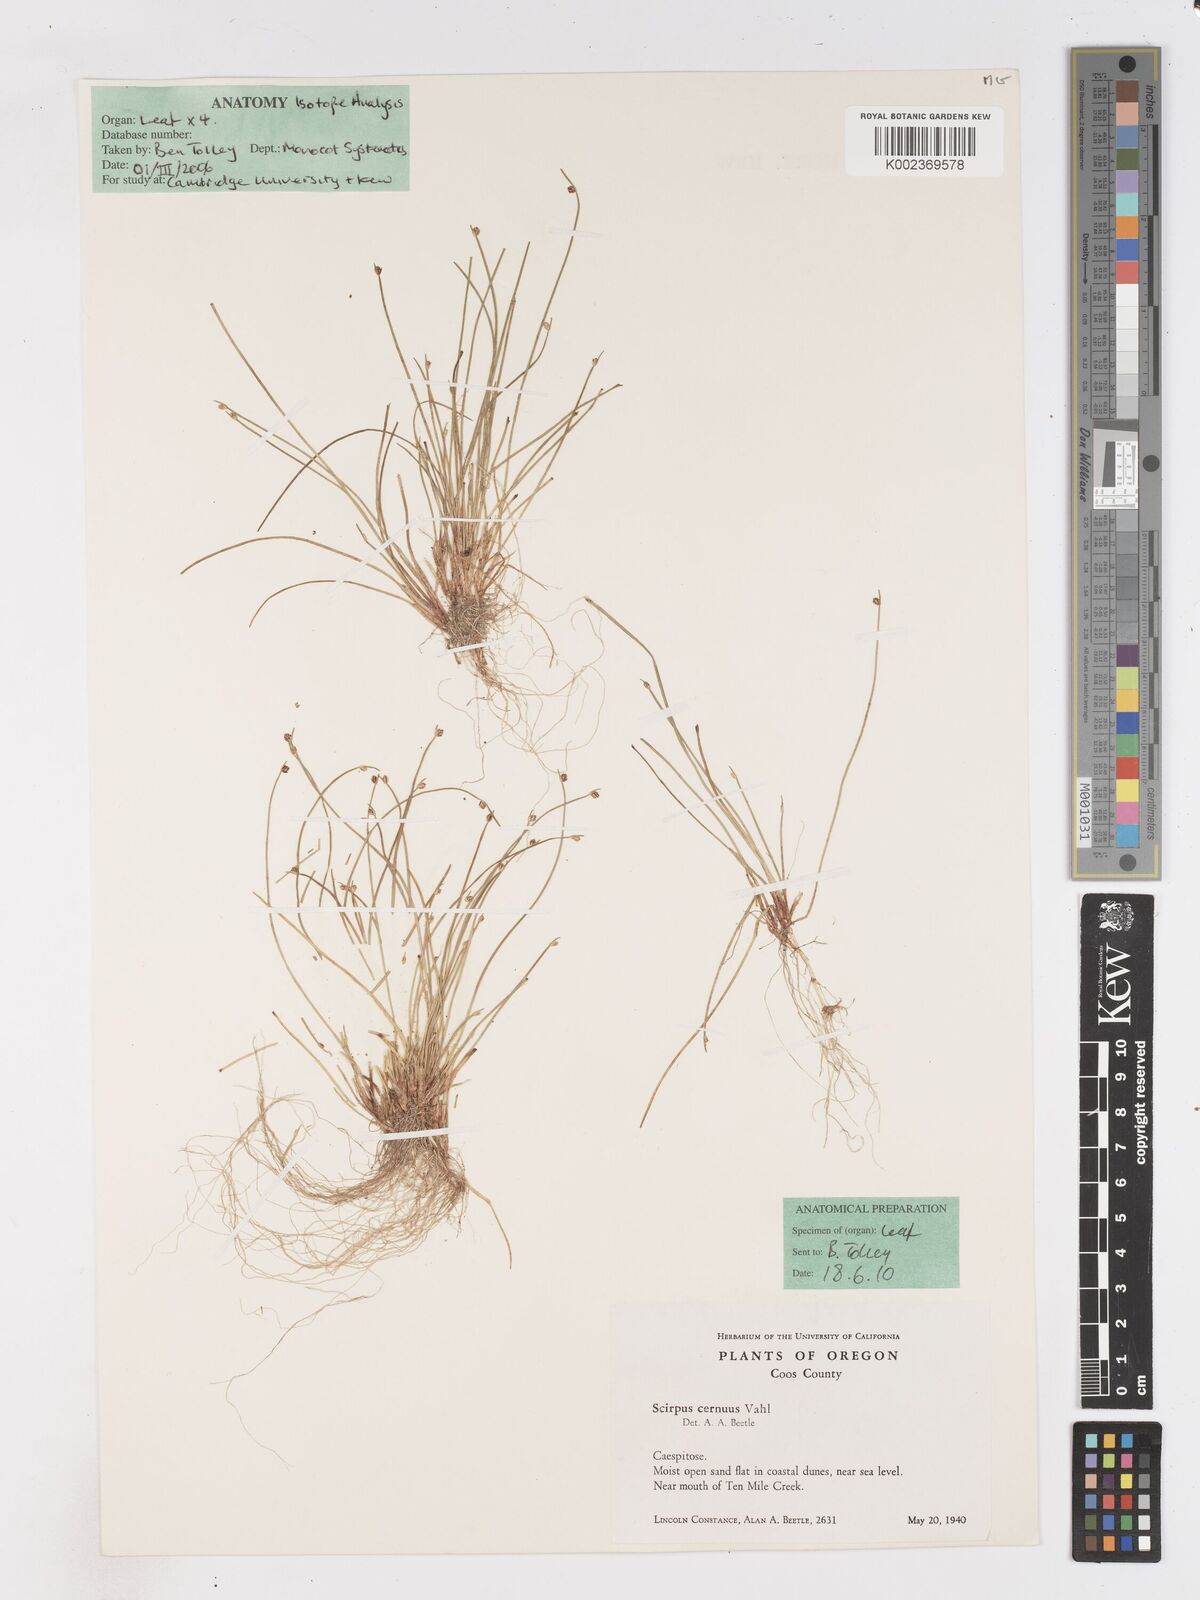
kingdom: Plantae
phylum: Tracheophyta
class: Liliopsida
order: Poales
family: Cyperaceae
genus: Isolepis
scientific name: Isolepis cernua
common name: Slender club-rush
